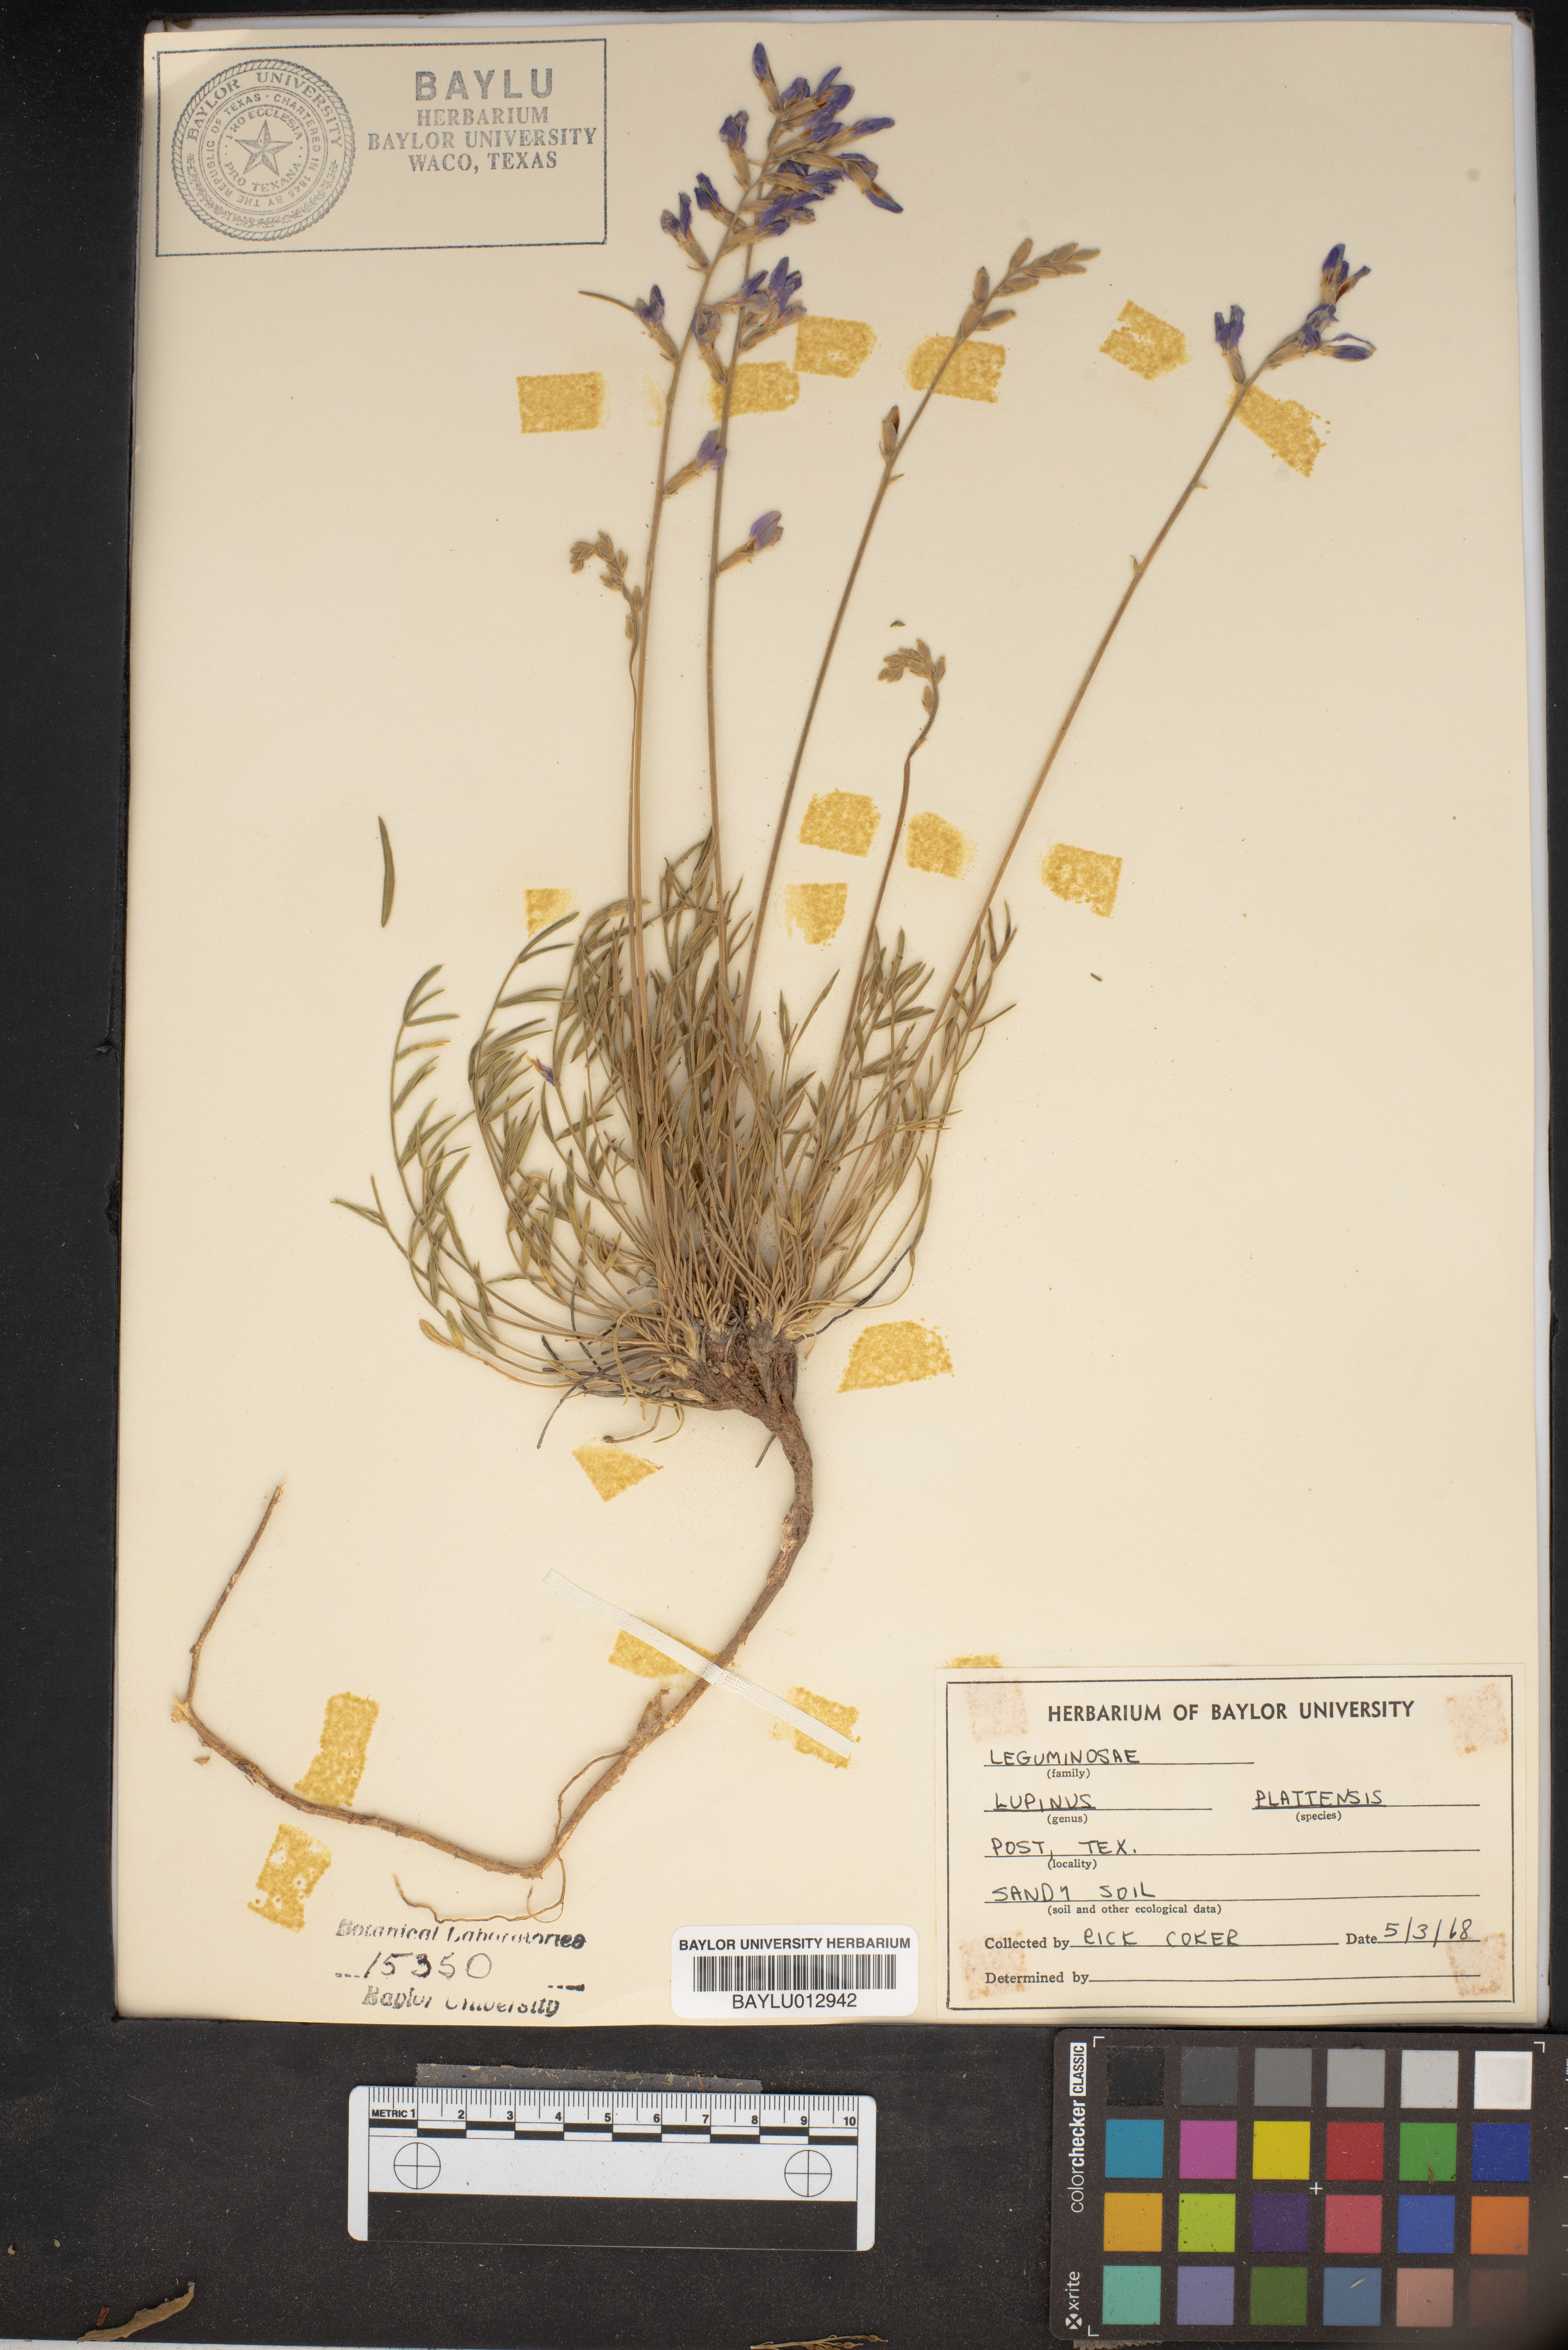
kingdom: Plantae
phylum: Tracheophyta
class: Magnoliopsida
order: Fabales
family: Fabaceae
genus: Lupinus
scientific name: Lupinus plattensis
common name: Platte lupine
